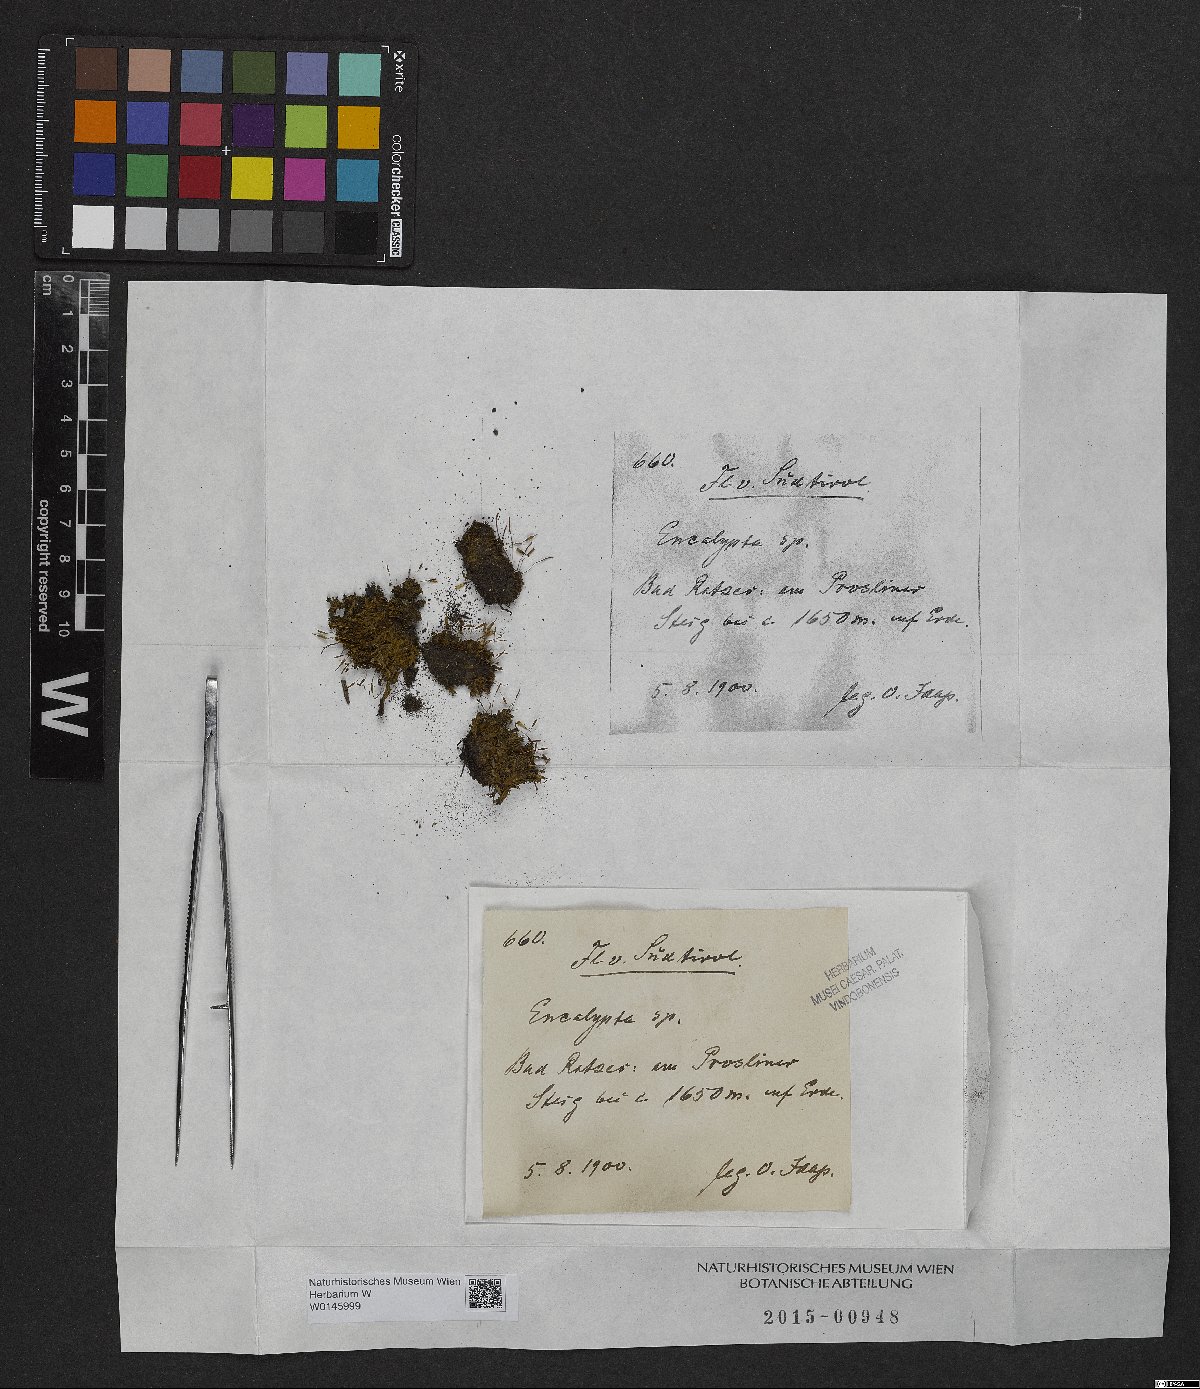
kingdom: Plantae
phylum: Bryophyta
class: Bryopsida
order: Encalyptales
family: Encalyptaceae
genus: Encalypta
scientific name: Encalypta
